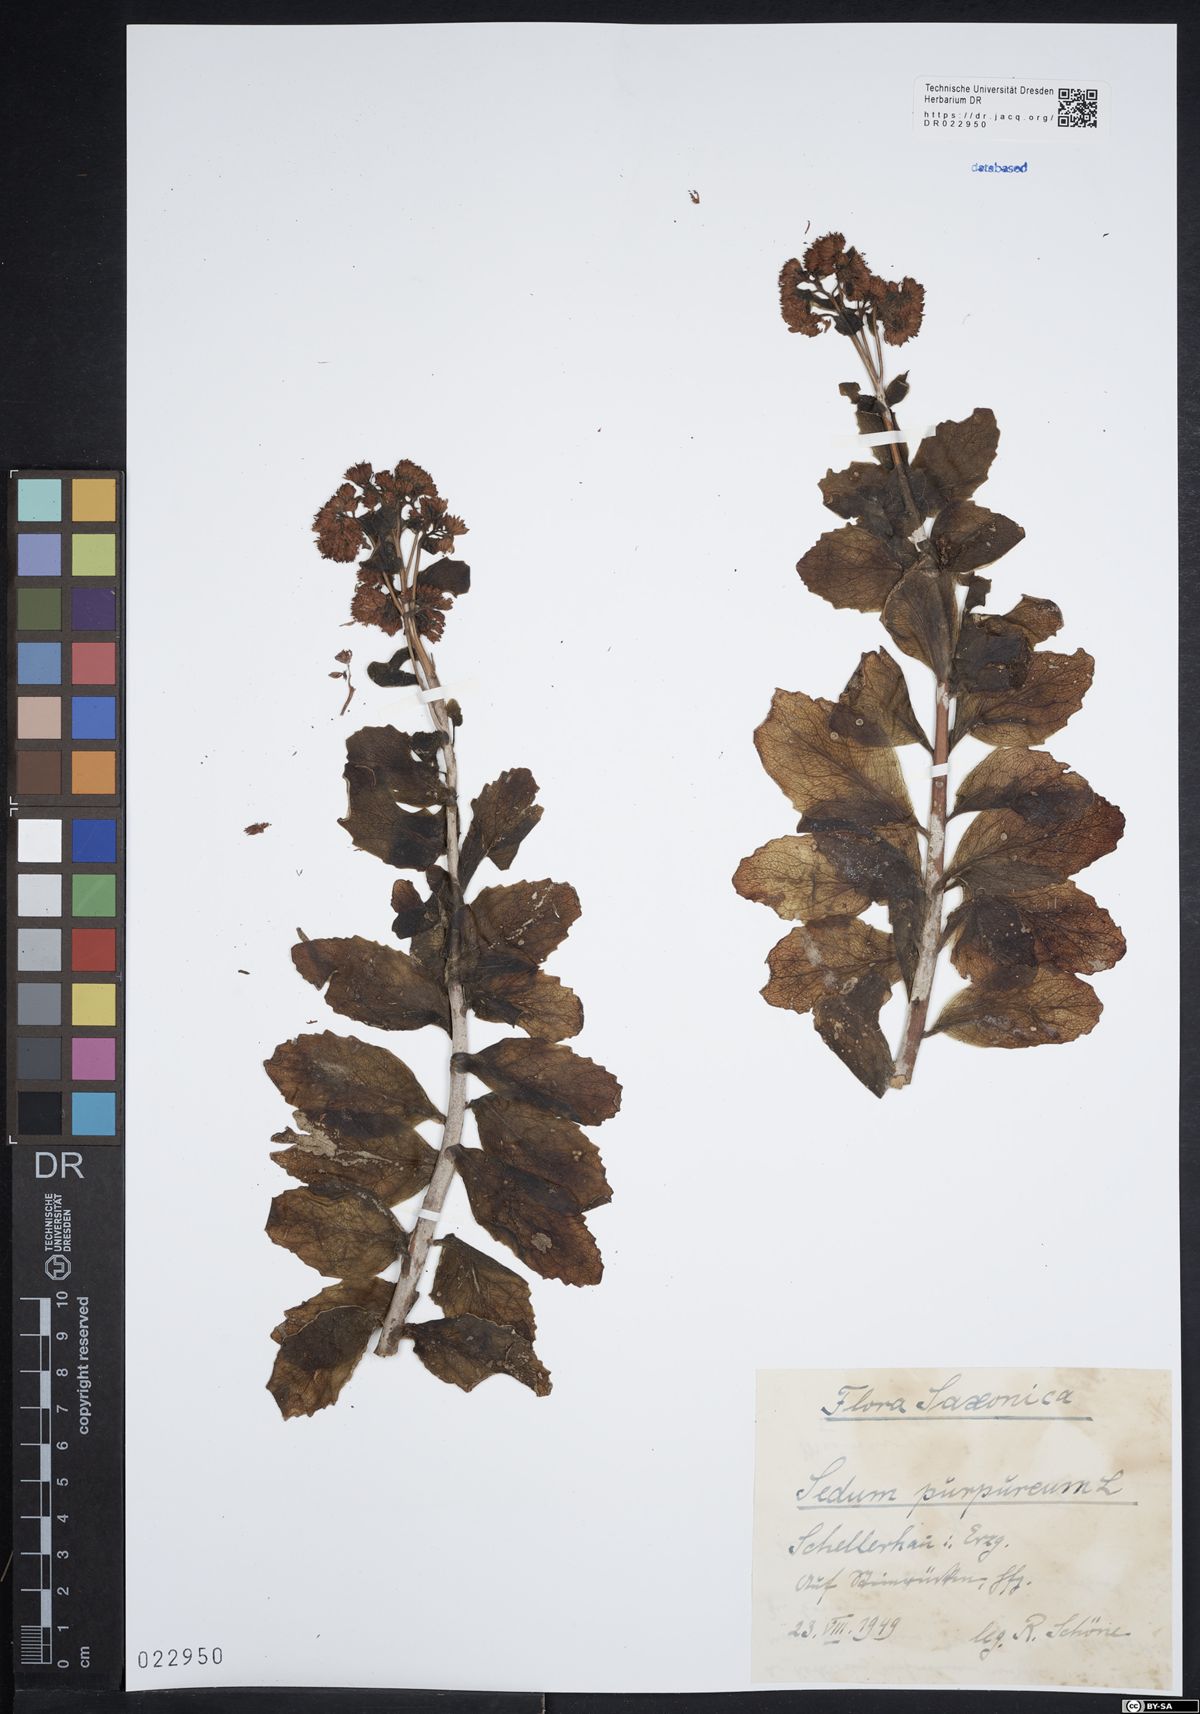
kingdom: Plantae
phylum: Tracheophyta
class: Magnoliopsida
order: Saxifragales
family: Crassulaceae
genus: Hylotelephium
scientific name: Hylotelephium telephium
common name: Live-forever
